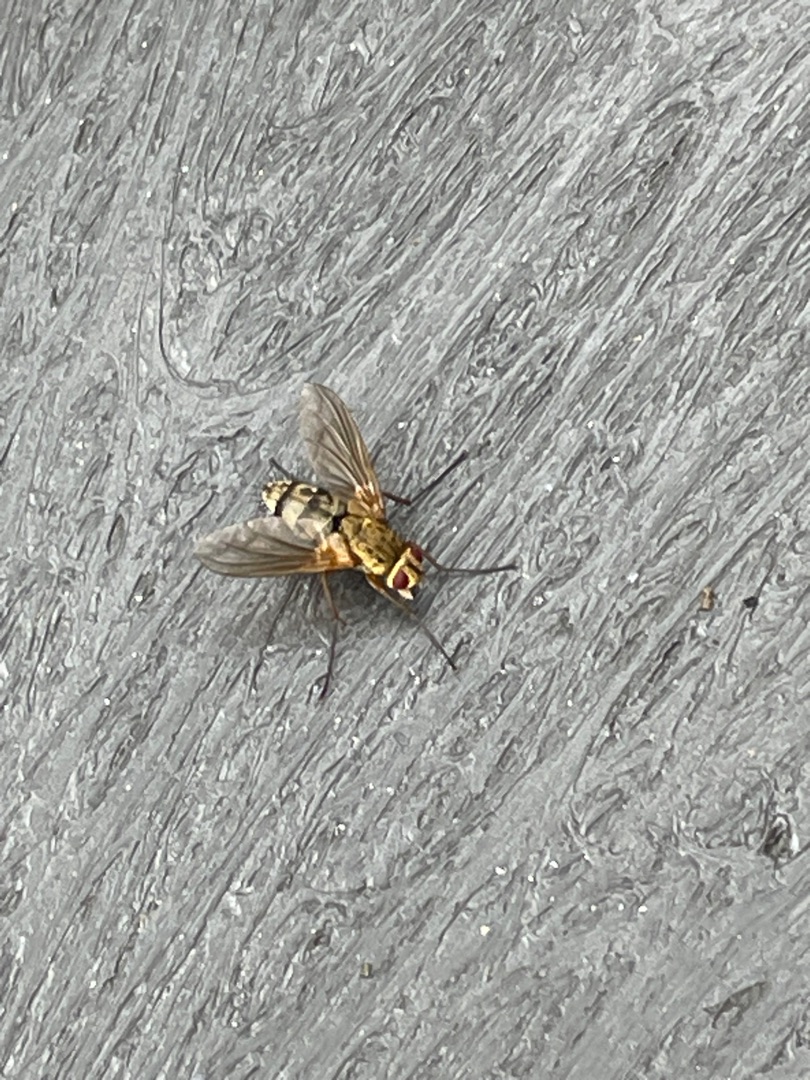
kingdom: Animalia
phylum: Arthropoda
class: Insecta
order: Diptera
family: Tachinidae
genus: Dexiosoma
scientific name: Dexiosoma caninum
